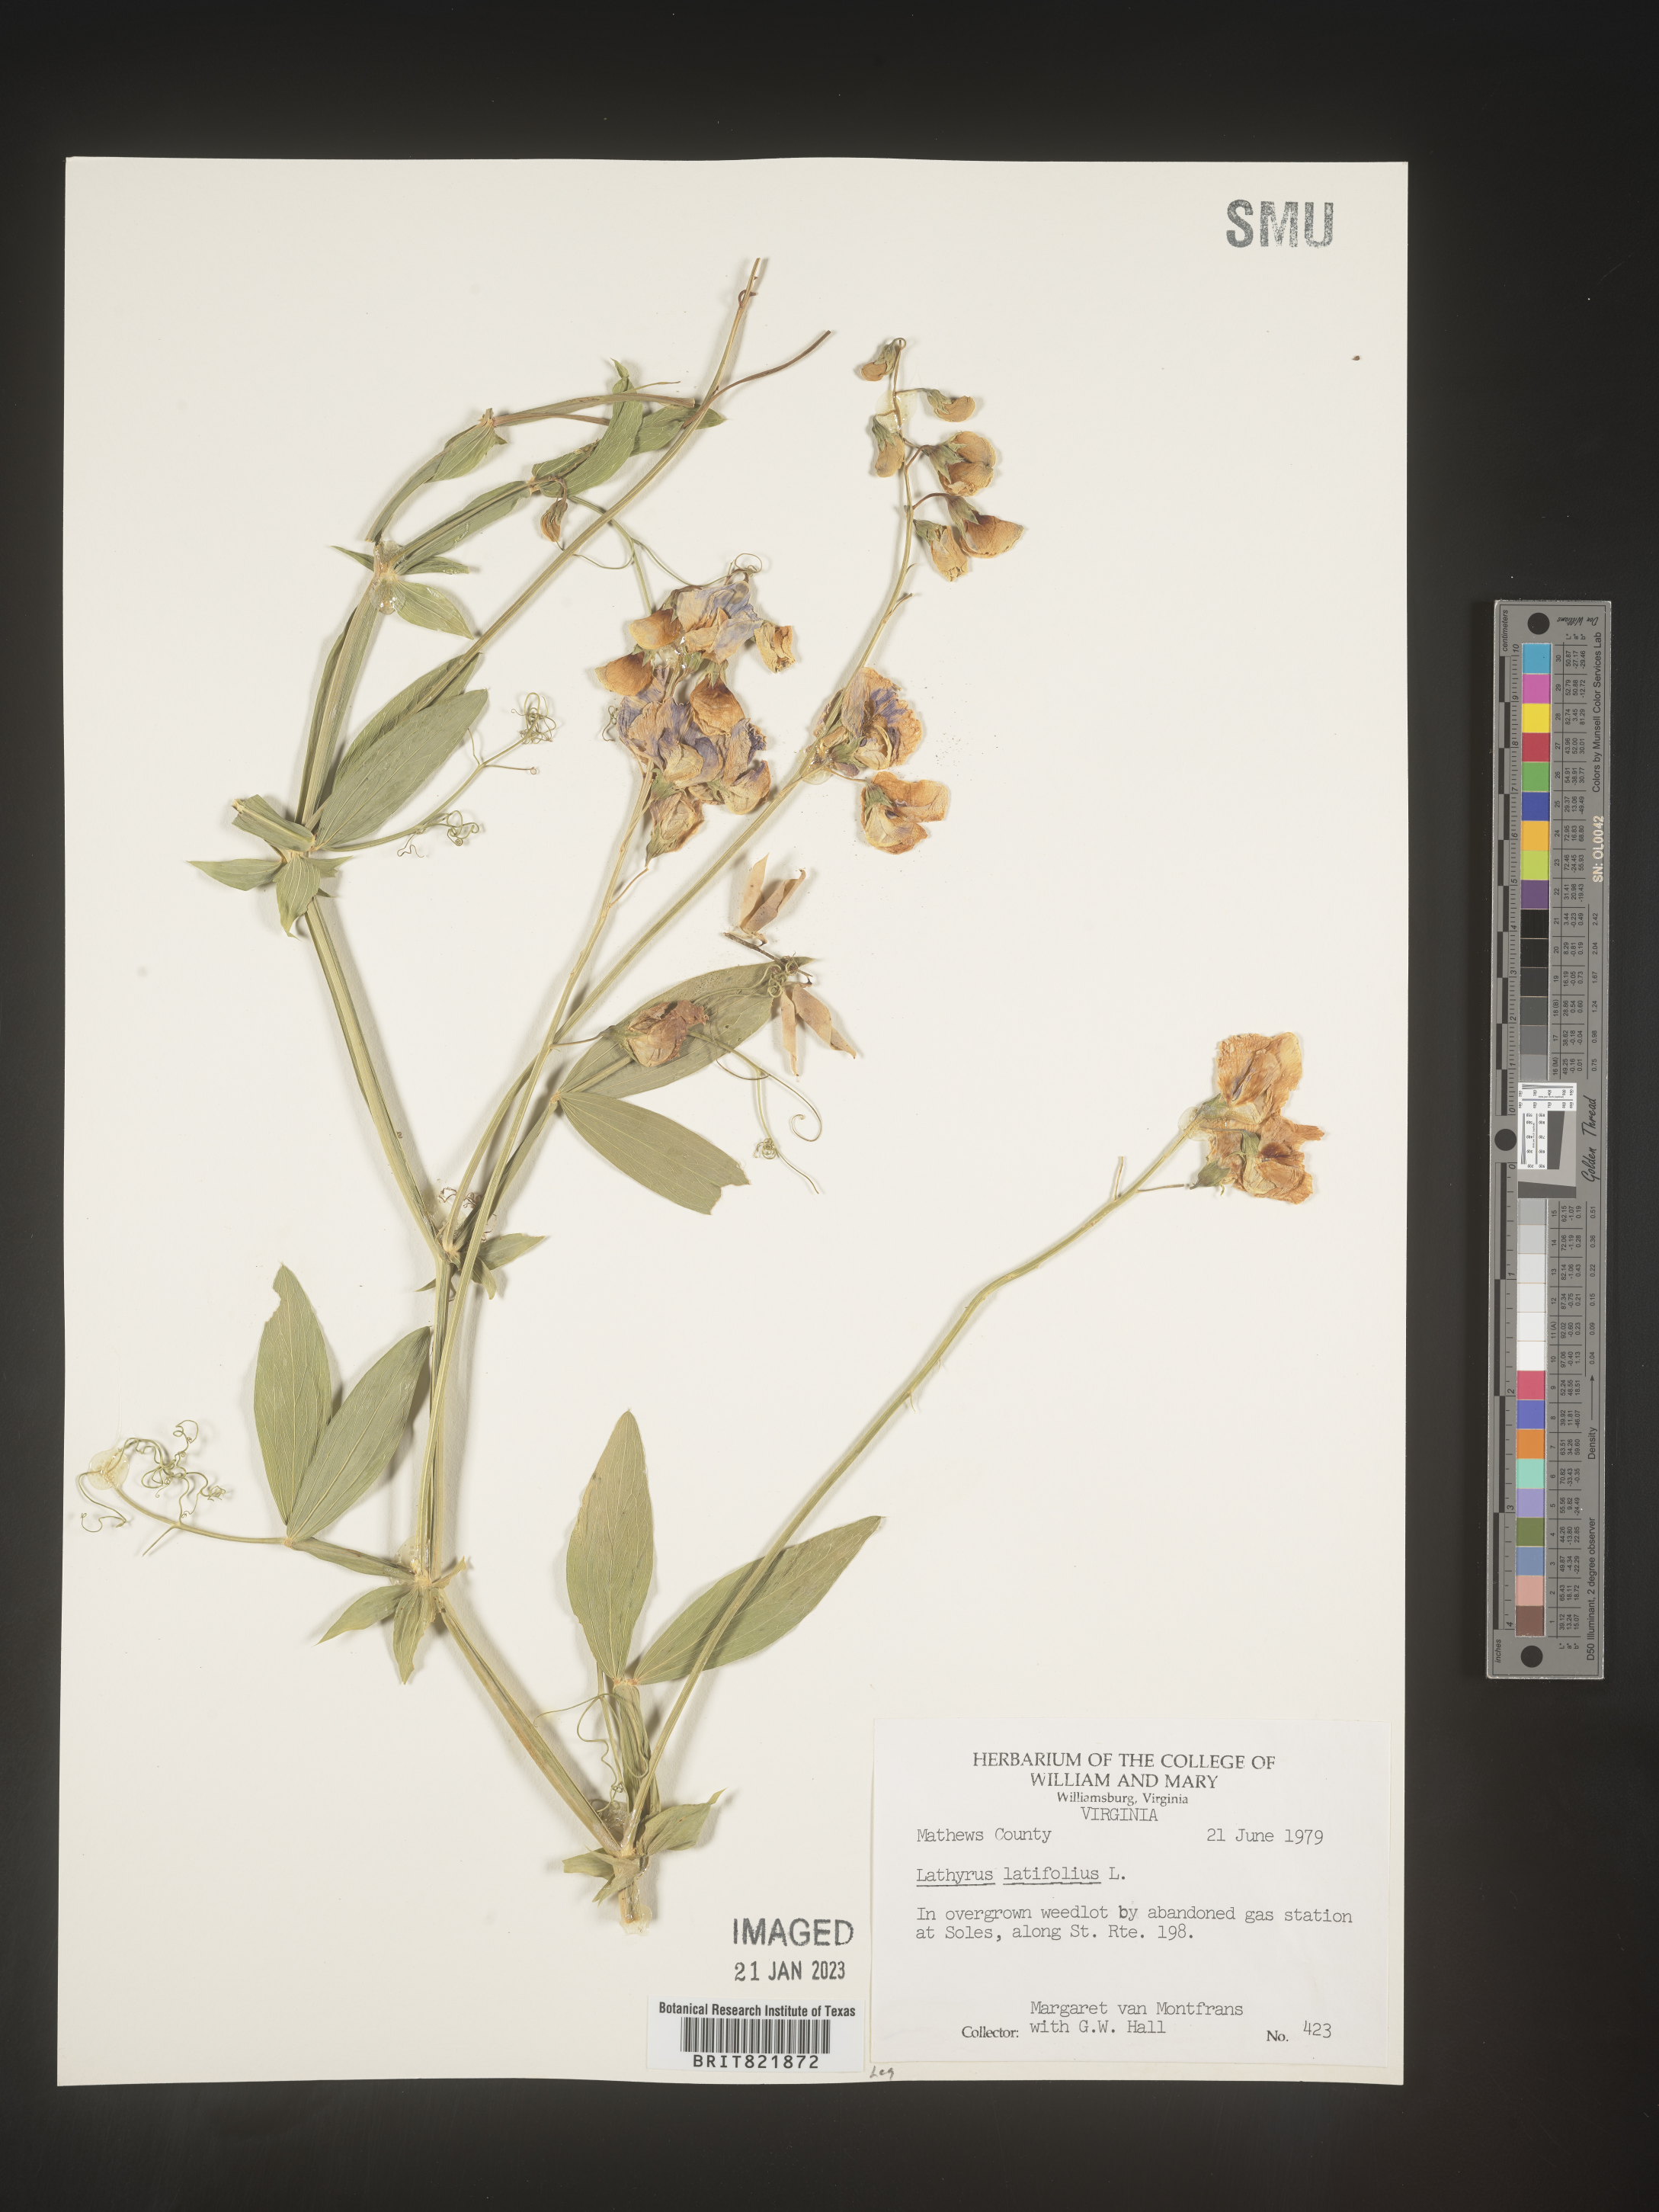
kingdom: Plantae
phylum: Tracheophyta
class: Magnoliopsida
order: Fabales
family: Fabaceae
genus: Lathyrus
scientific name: Lathyrus latifolius
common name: Perennial pea
